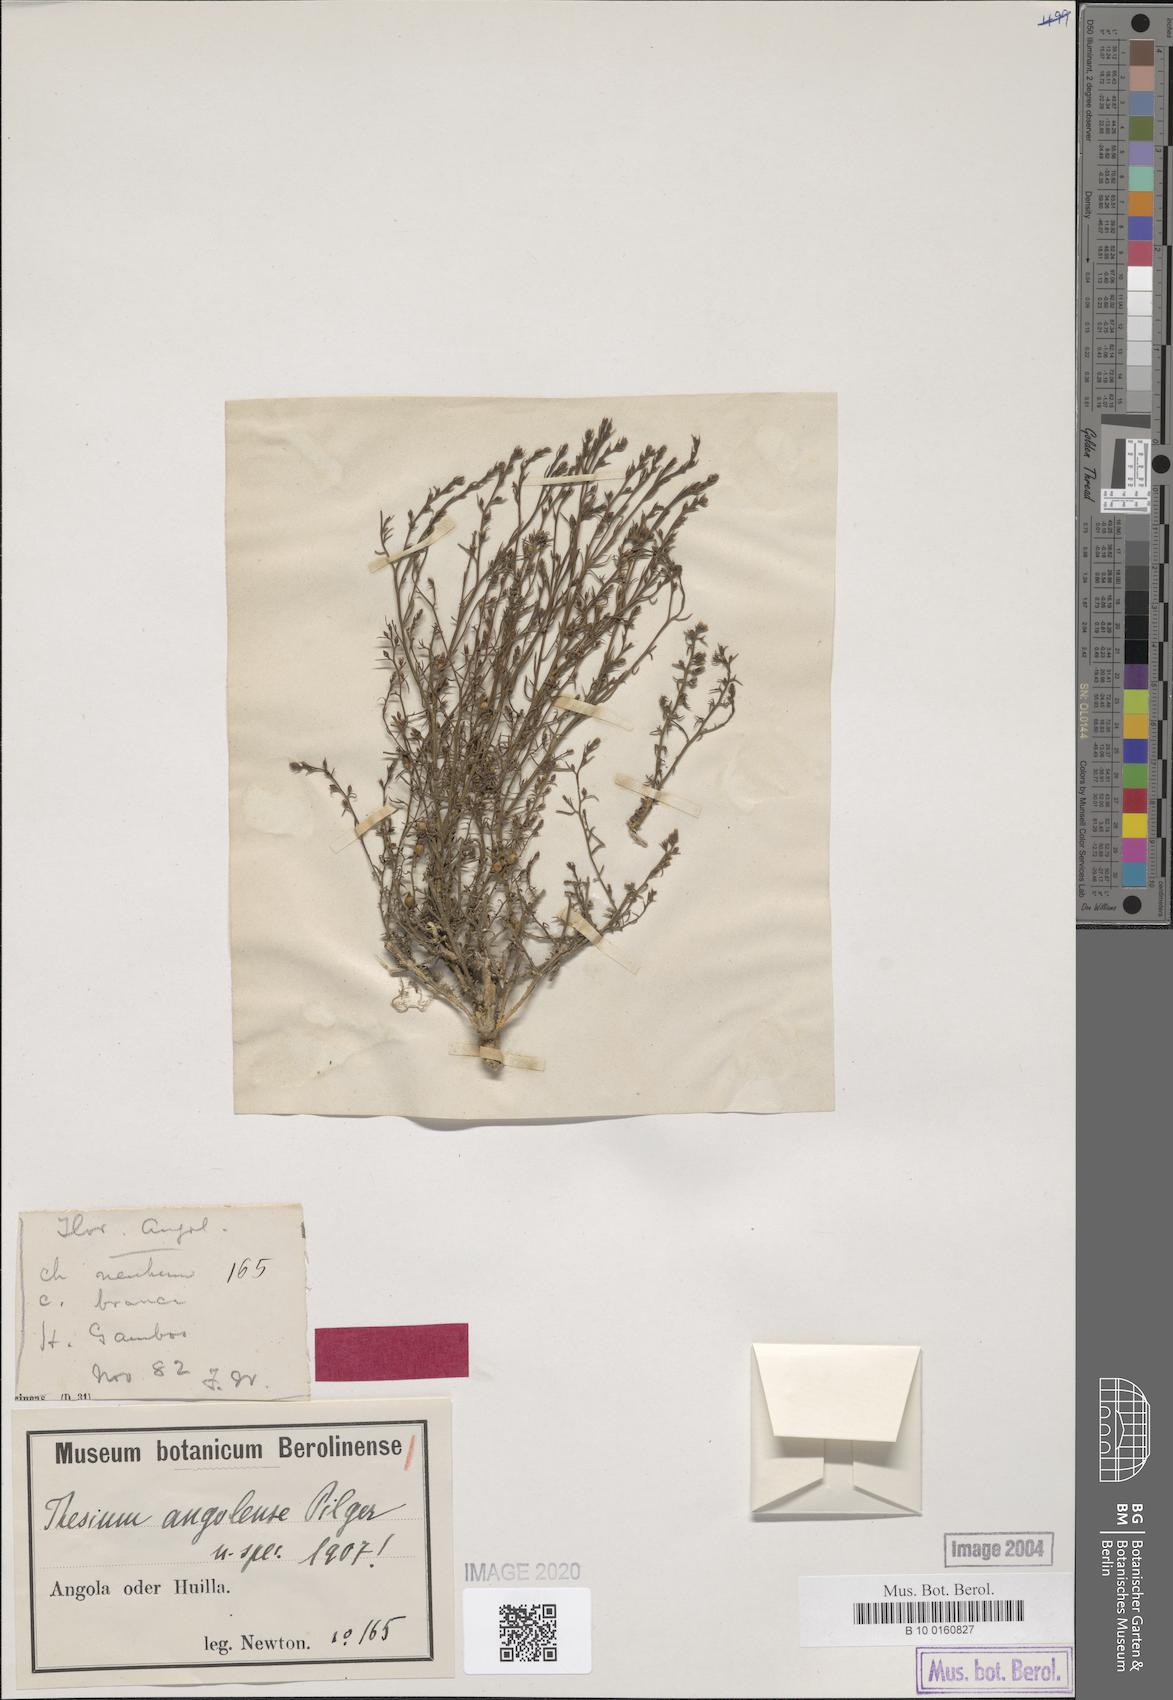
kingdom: Plantae
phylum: Tracheophyta
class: Magnoliopsida
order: Santalales
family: Thesiaceae
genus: Thesium
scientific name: Thesium angolense
